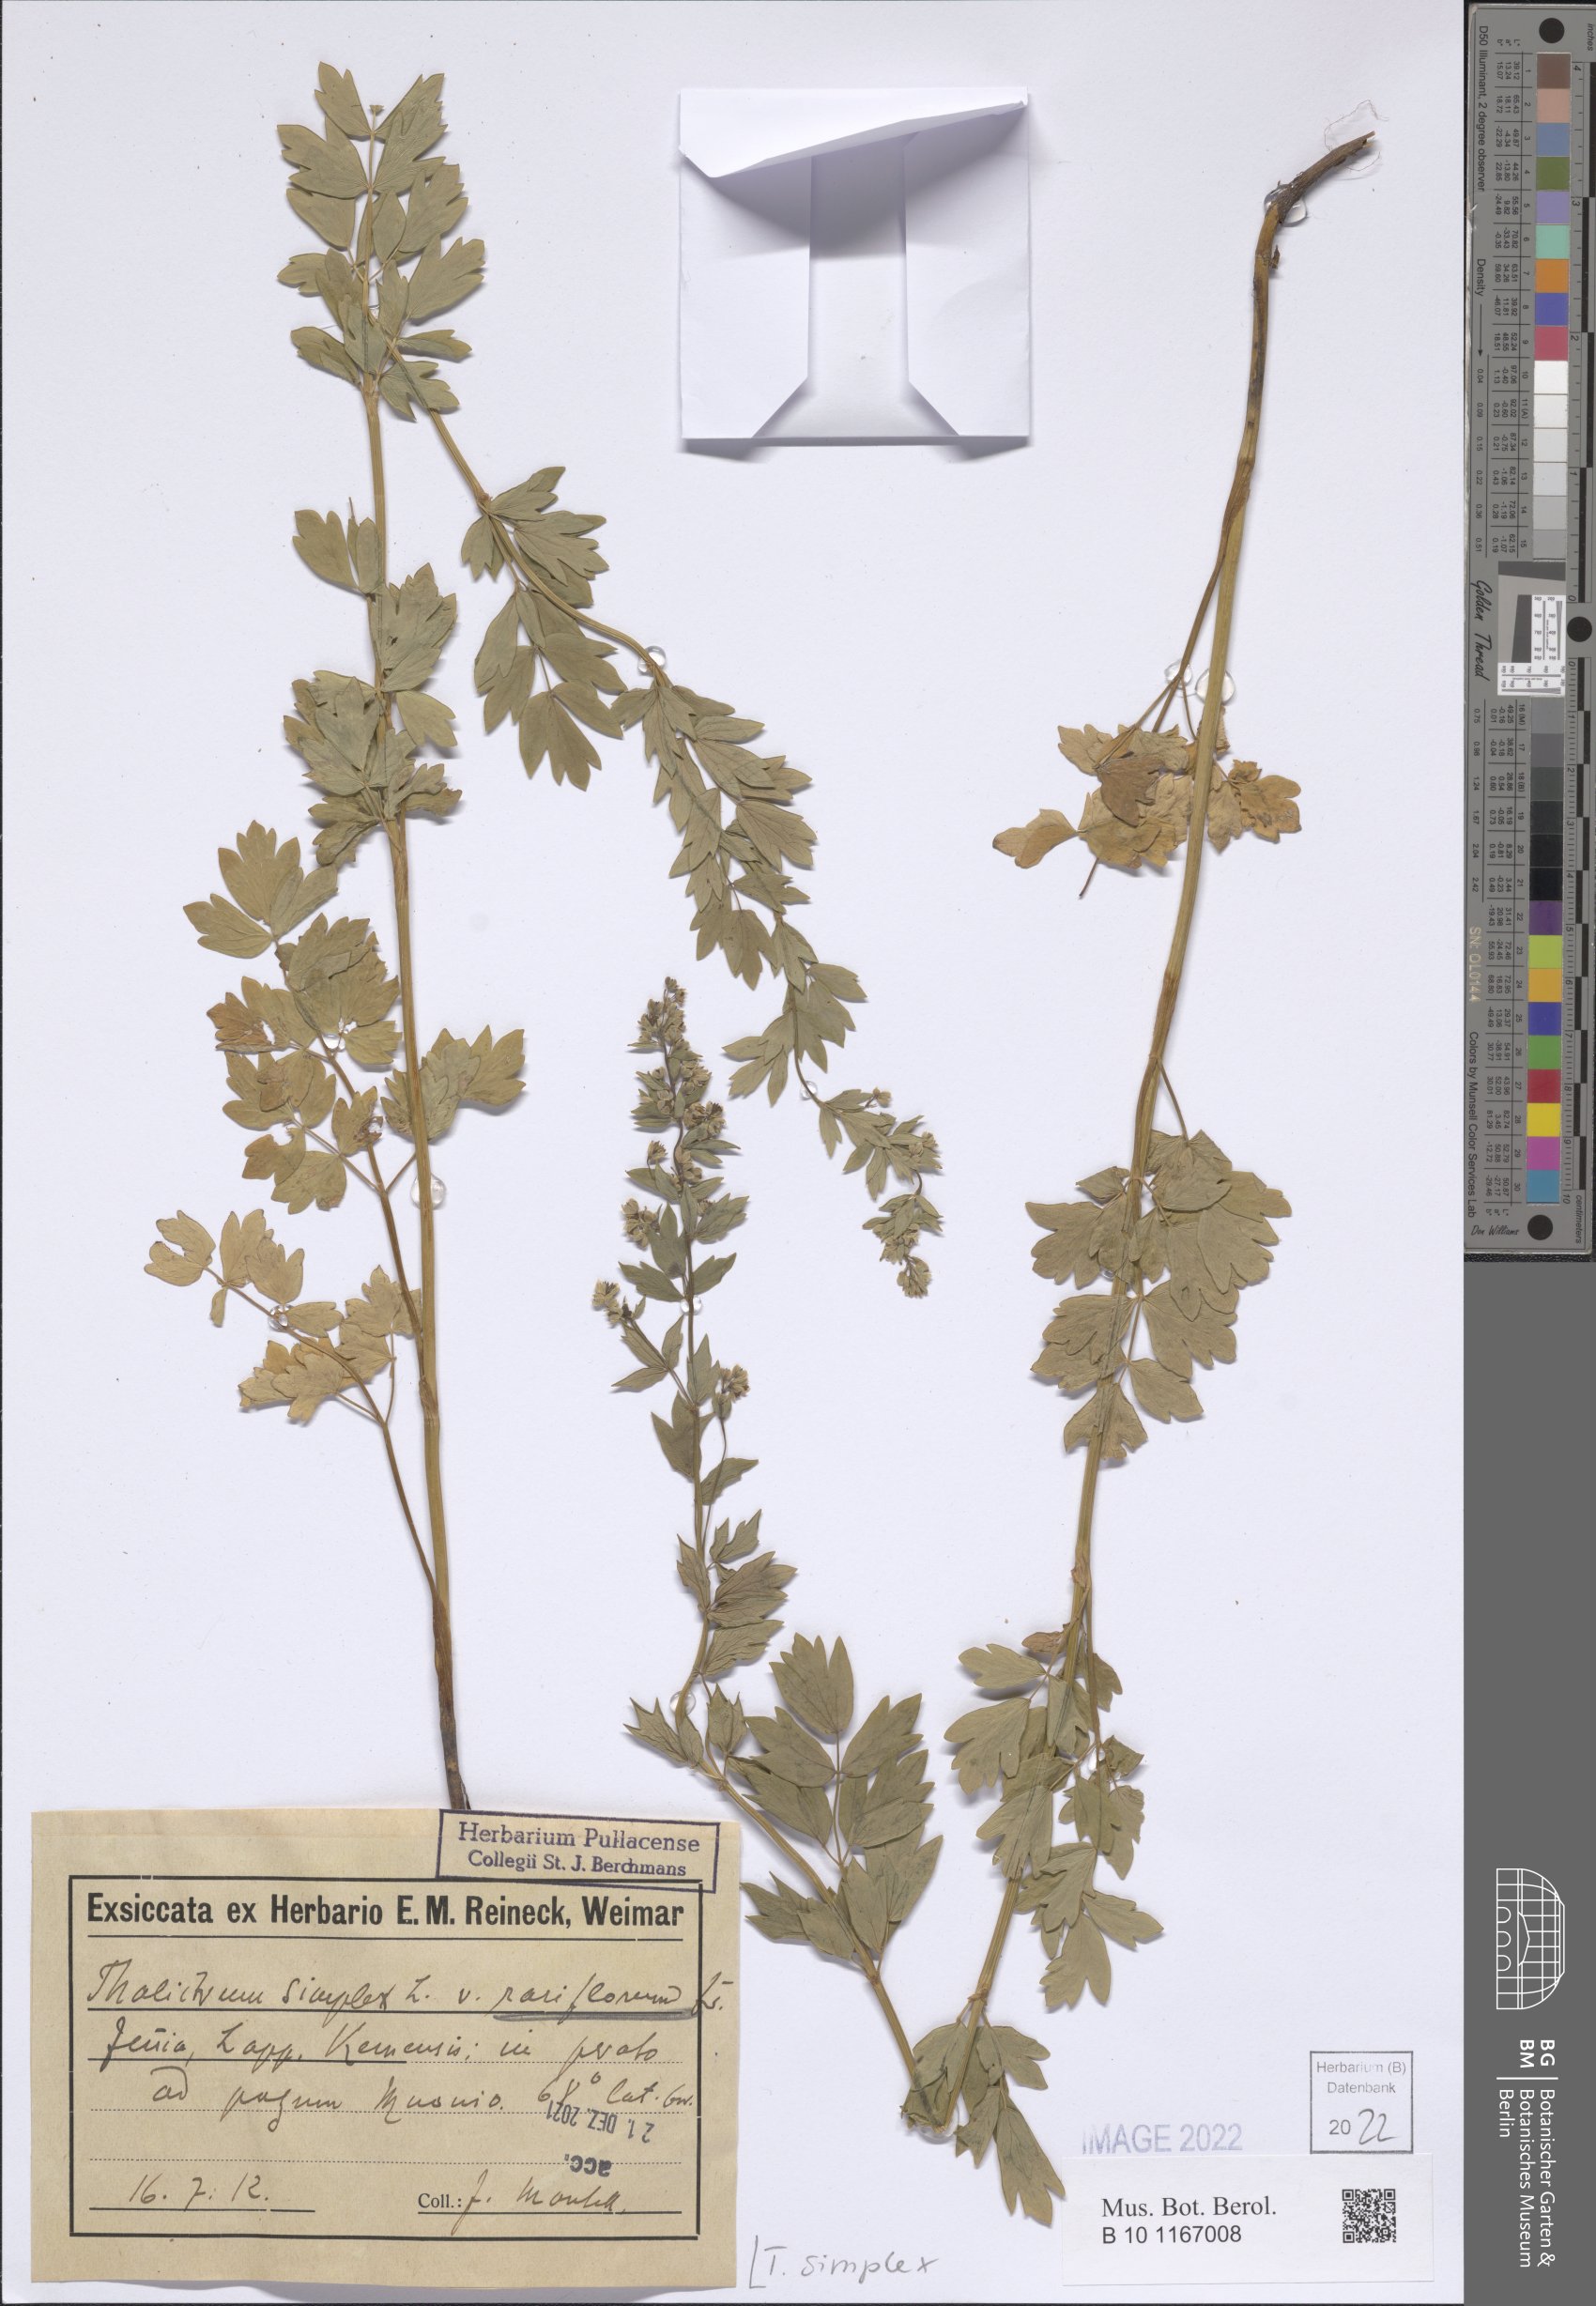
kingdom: Plantae
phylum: Tracheophyta
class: Magnoliopsida
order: Ranunculales
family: Ranunculaceae
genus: Thalictrum
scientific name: Thalictrum simplex
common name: Small meadow-rue
